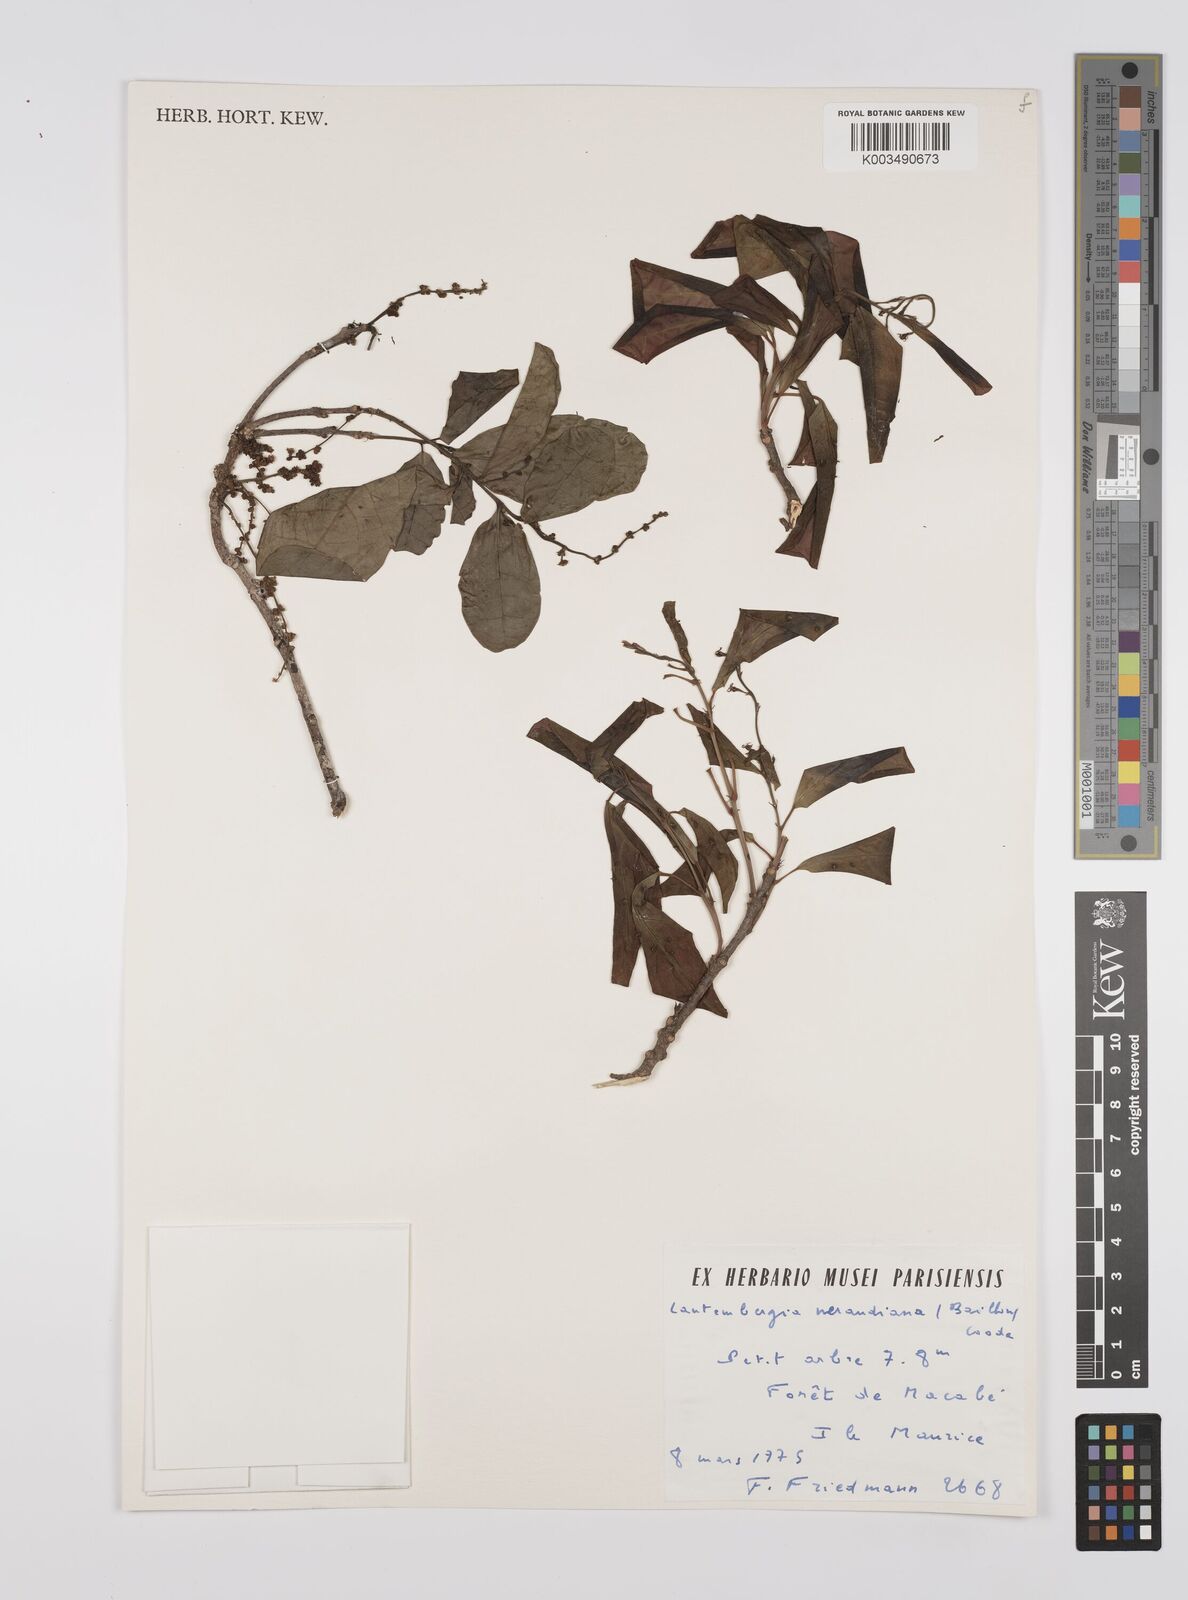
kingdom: Plantae
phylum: Tracheophyta
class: Magnoliopsida
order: Malpighiales
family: Euphorbiaceae
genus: Orfilea
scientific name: Orfilea neraudiana
